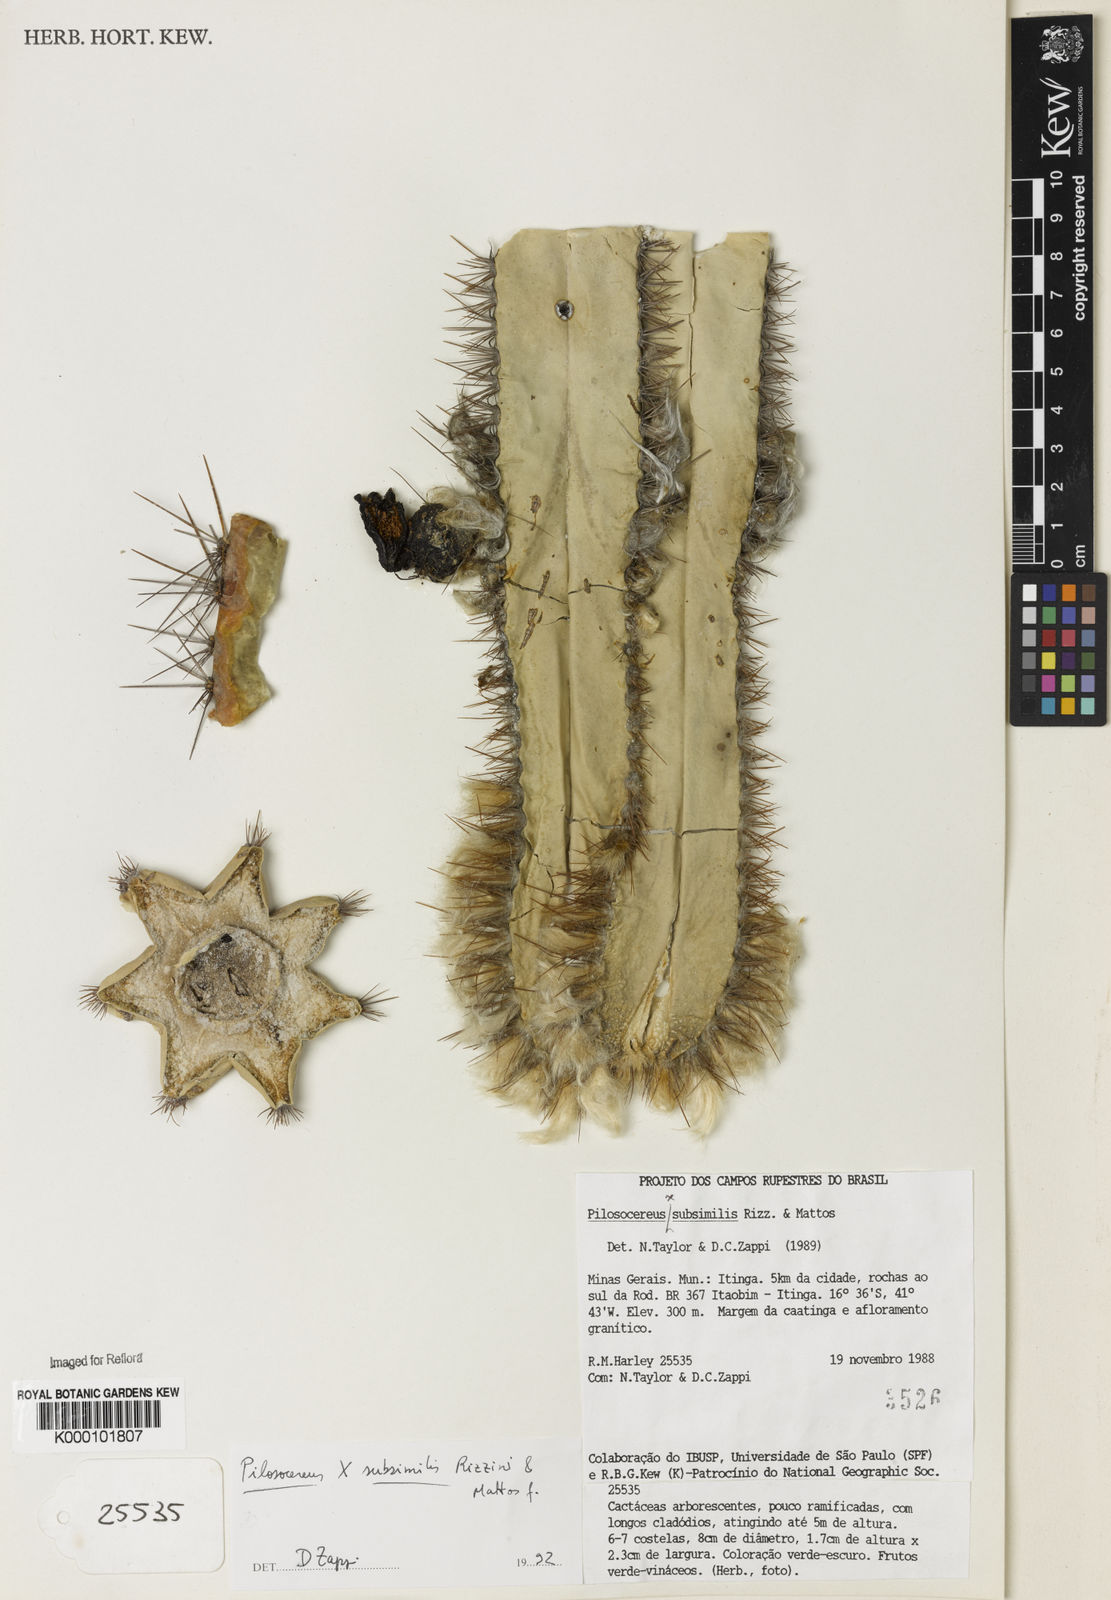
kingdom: Plantae
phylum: Tracheophyta
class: Magnoliopsida
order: Caryophyllales
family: Cactaceae
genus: Pilosocereus
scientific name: Pilosocereus
